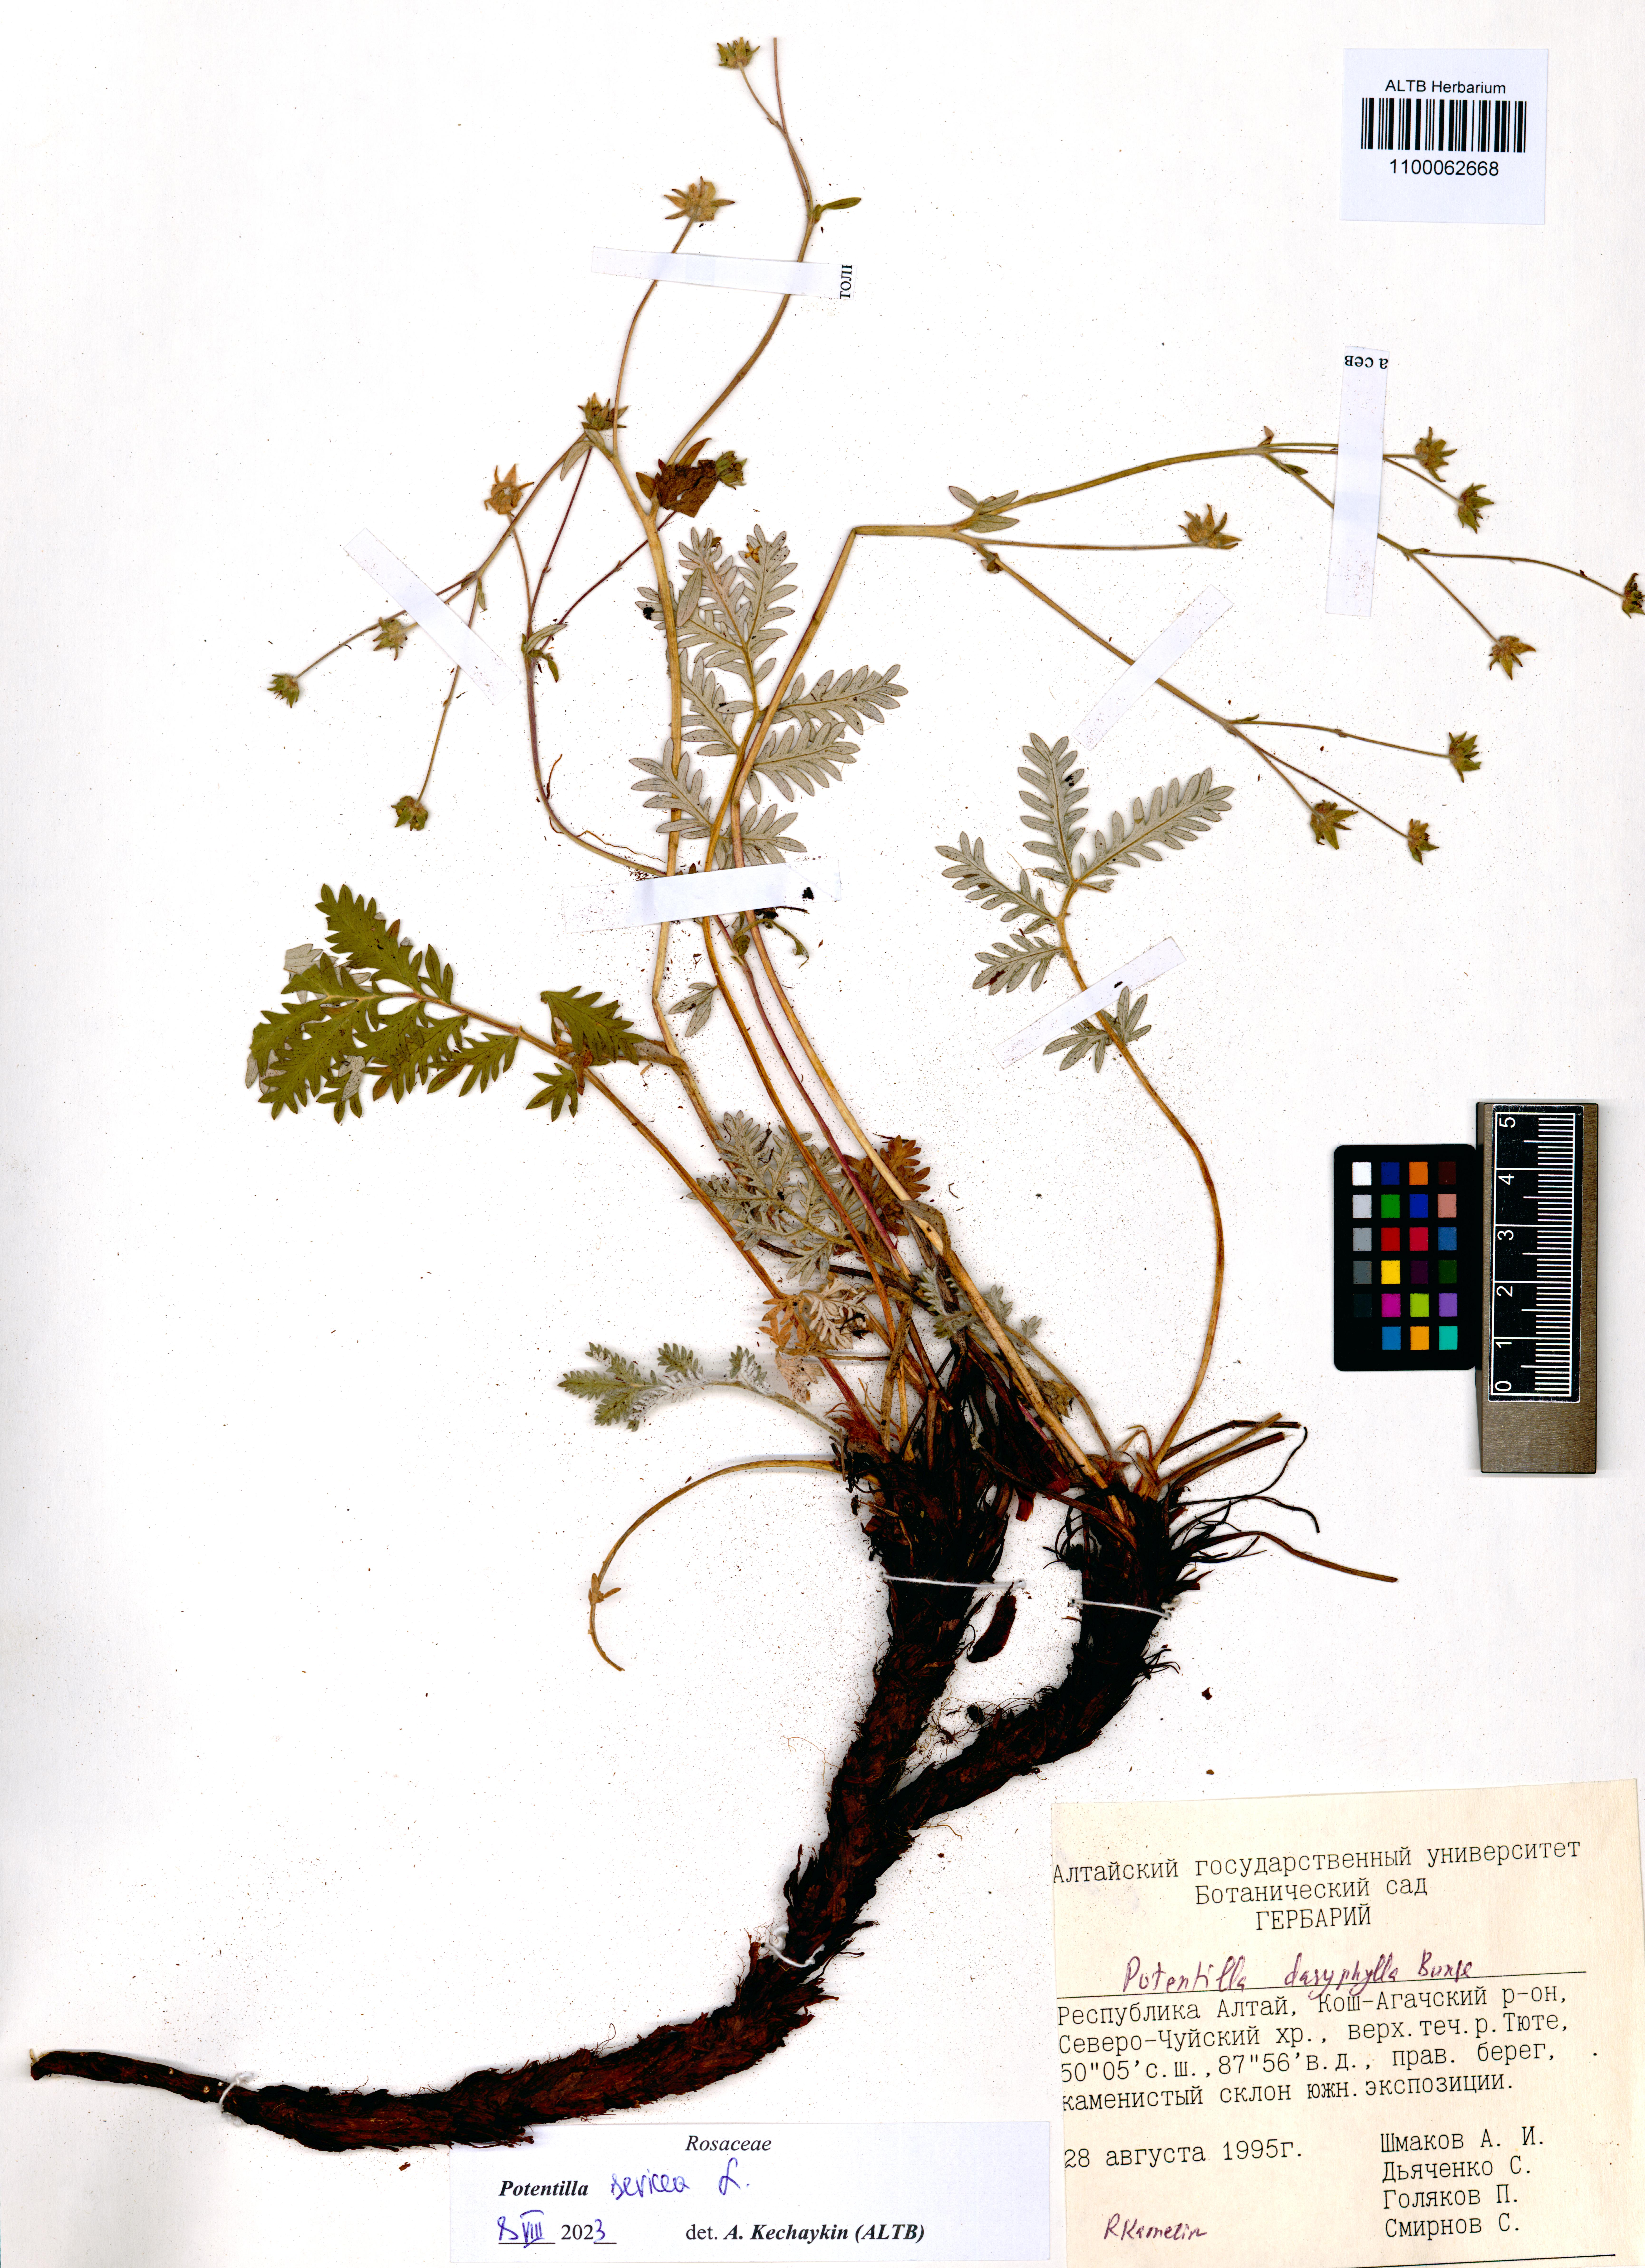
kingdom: Plantae
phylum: Tracheophyta
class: Magnoliopsida
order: Rosales
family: Rosaceae
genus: Potentilla
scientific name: Potentilla sericea
